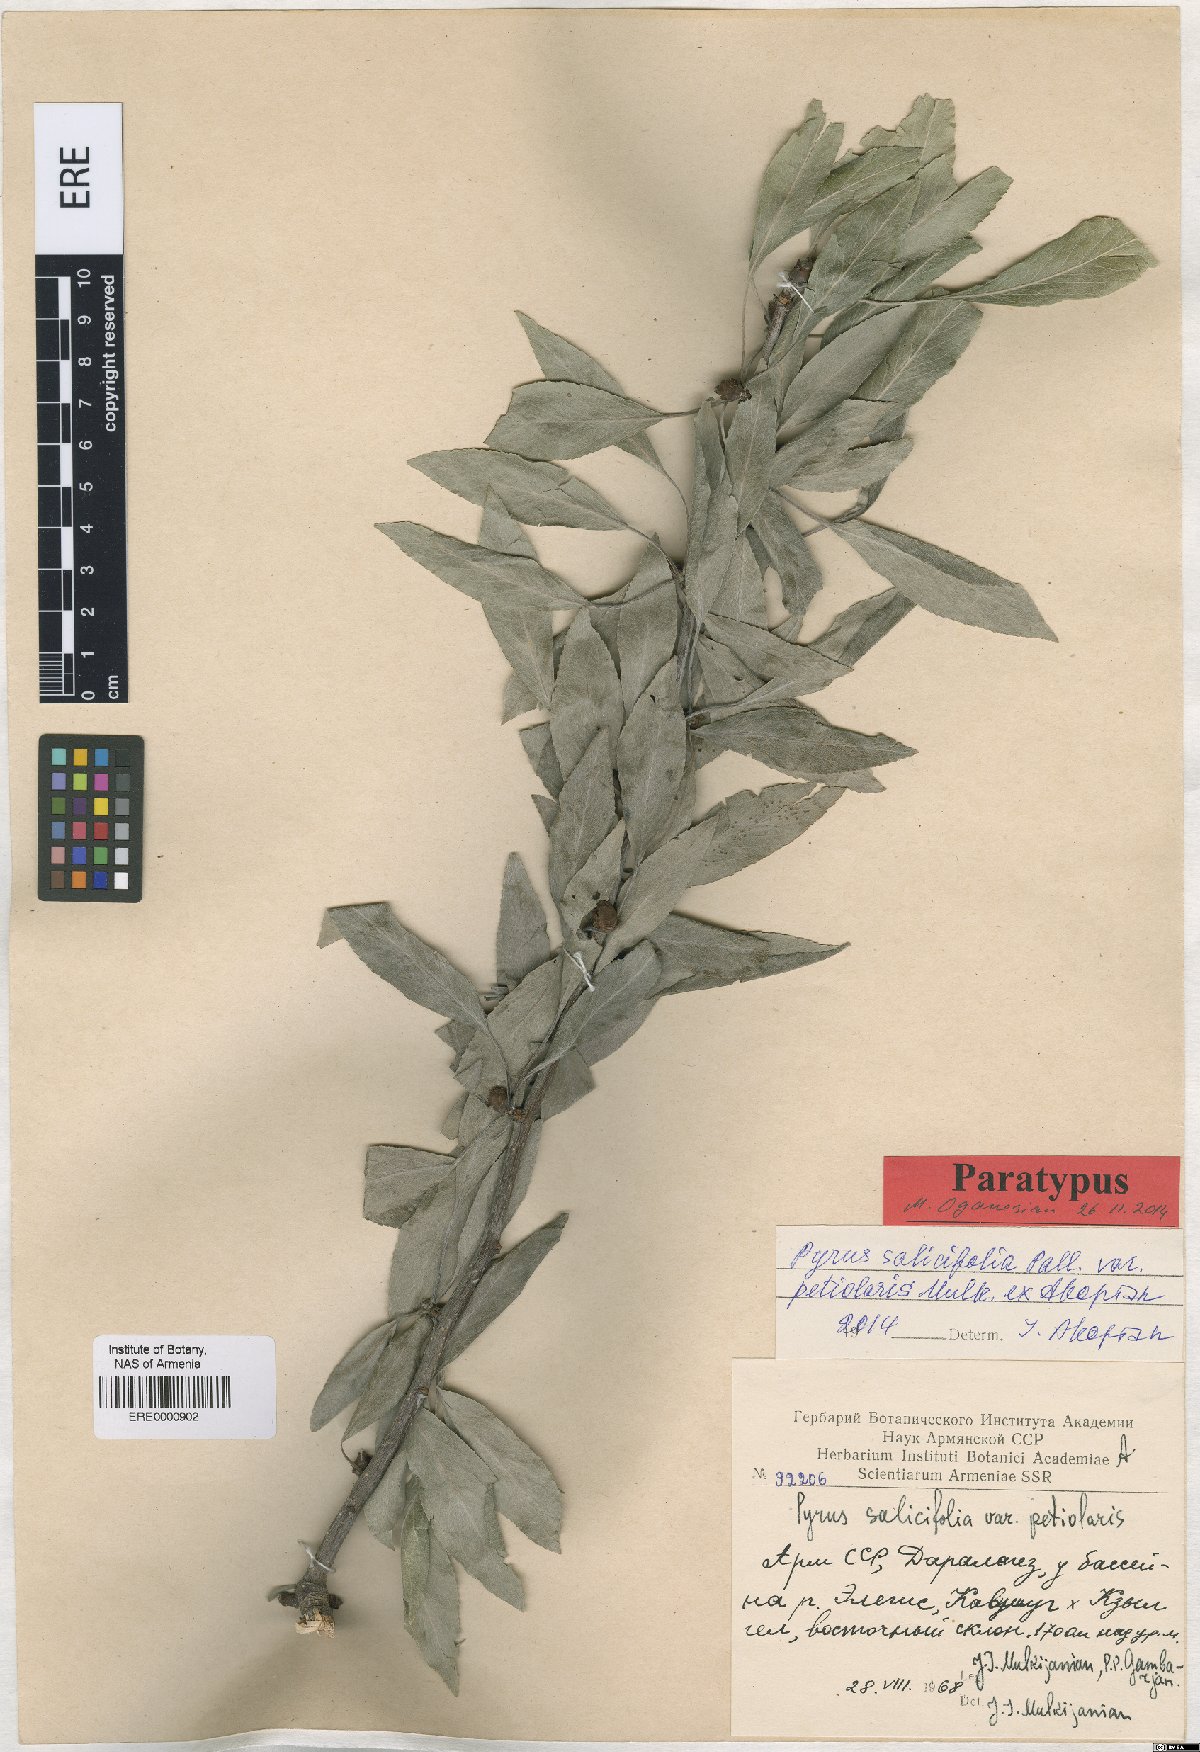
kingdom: Plantae
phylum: Tracheophyta
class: Magnoliopsida
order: Rosales
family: Rosaceae
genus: Pyrus
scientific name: Pyrus salicifolia
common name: Willow-leaved pear
